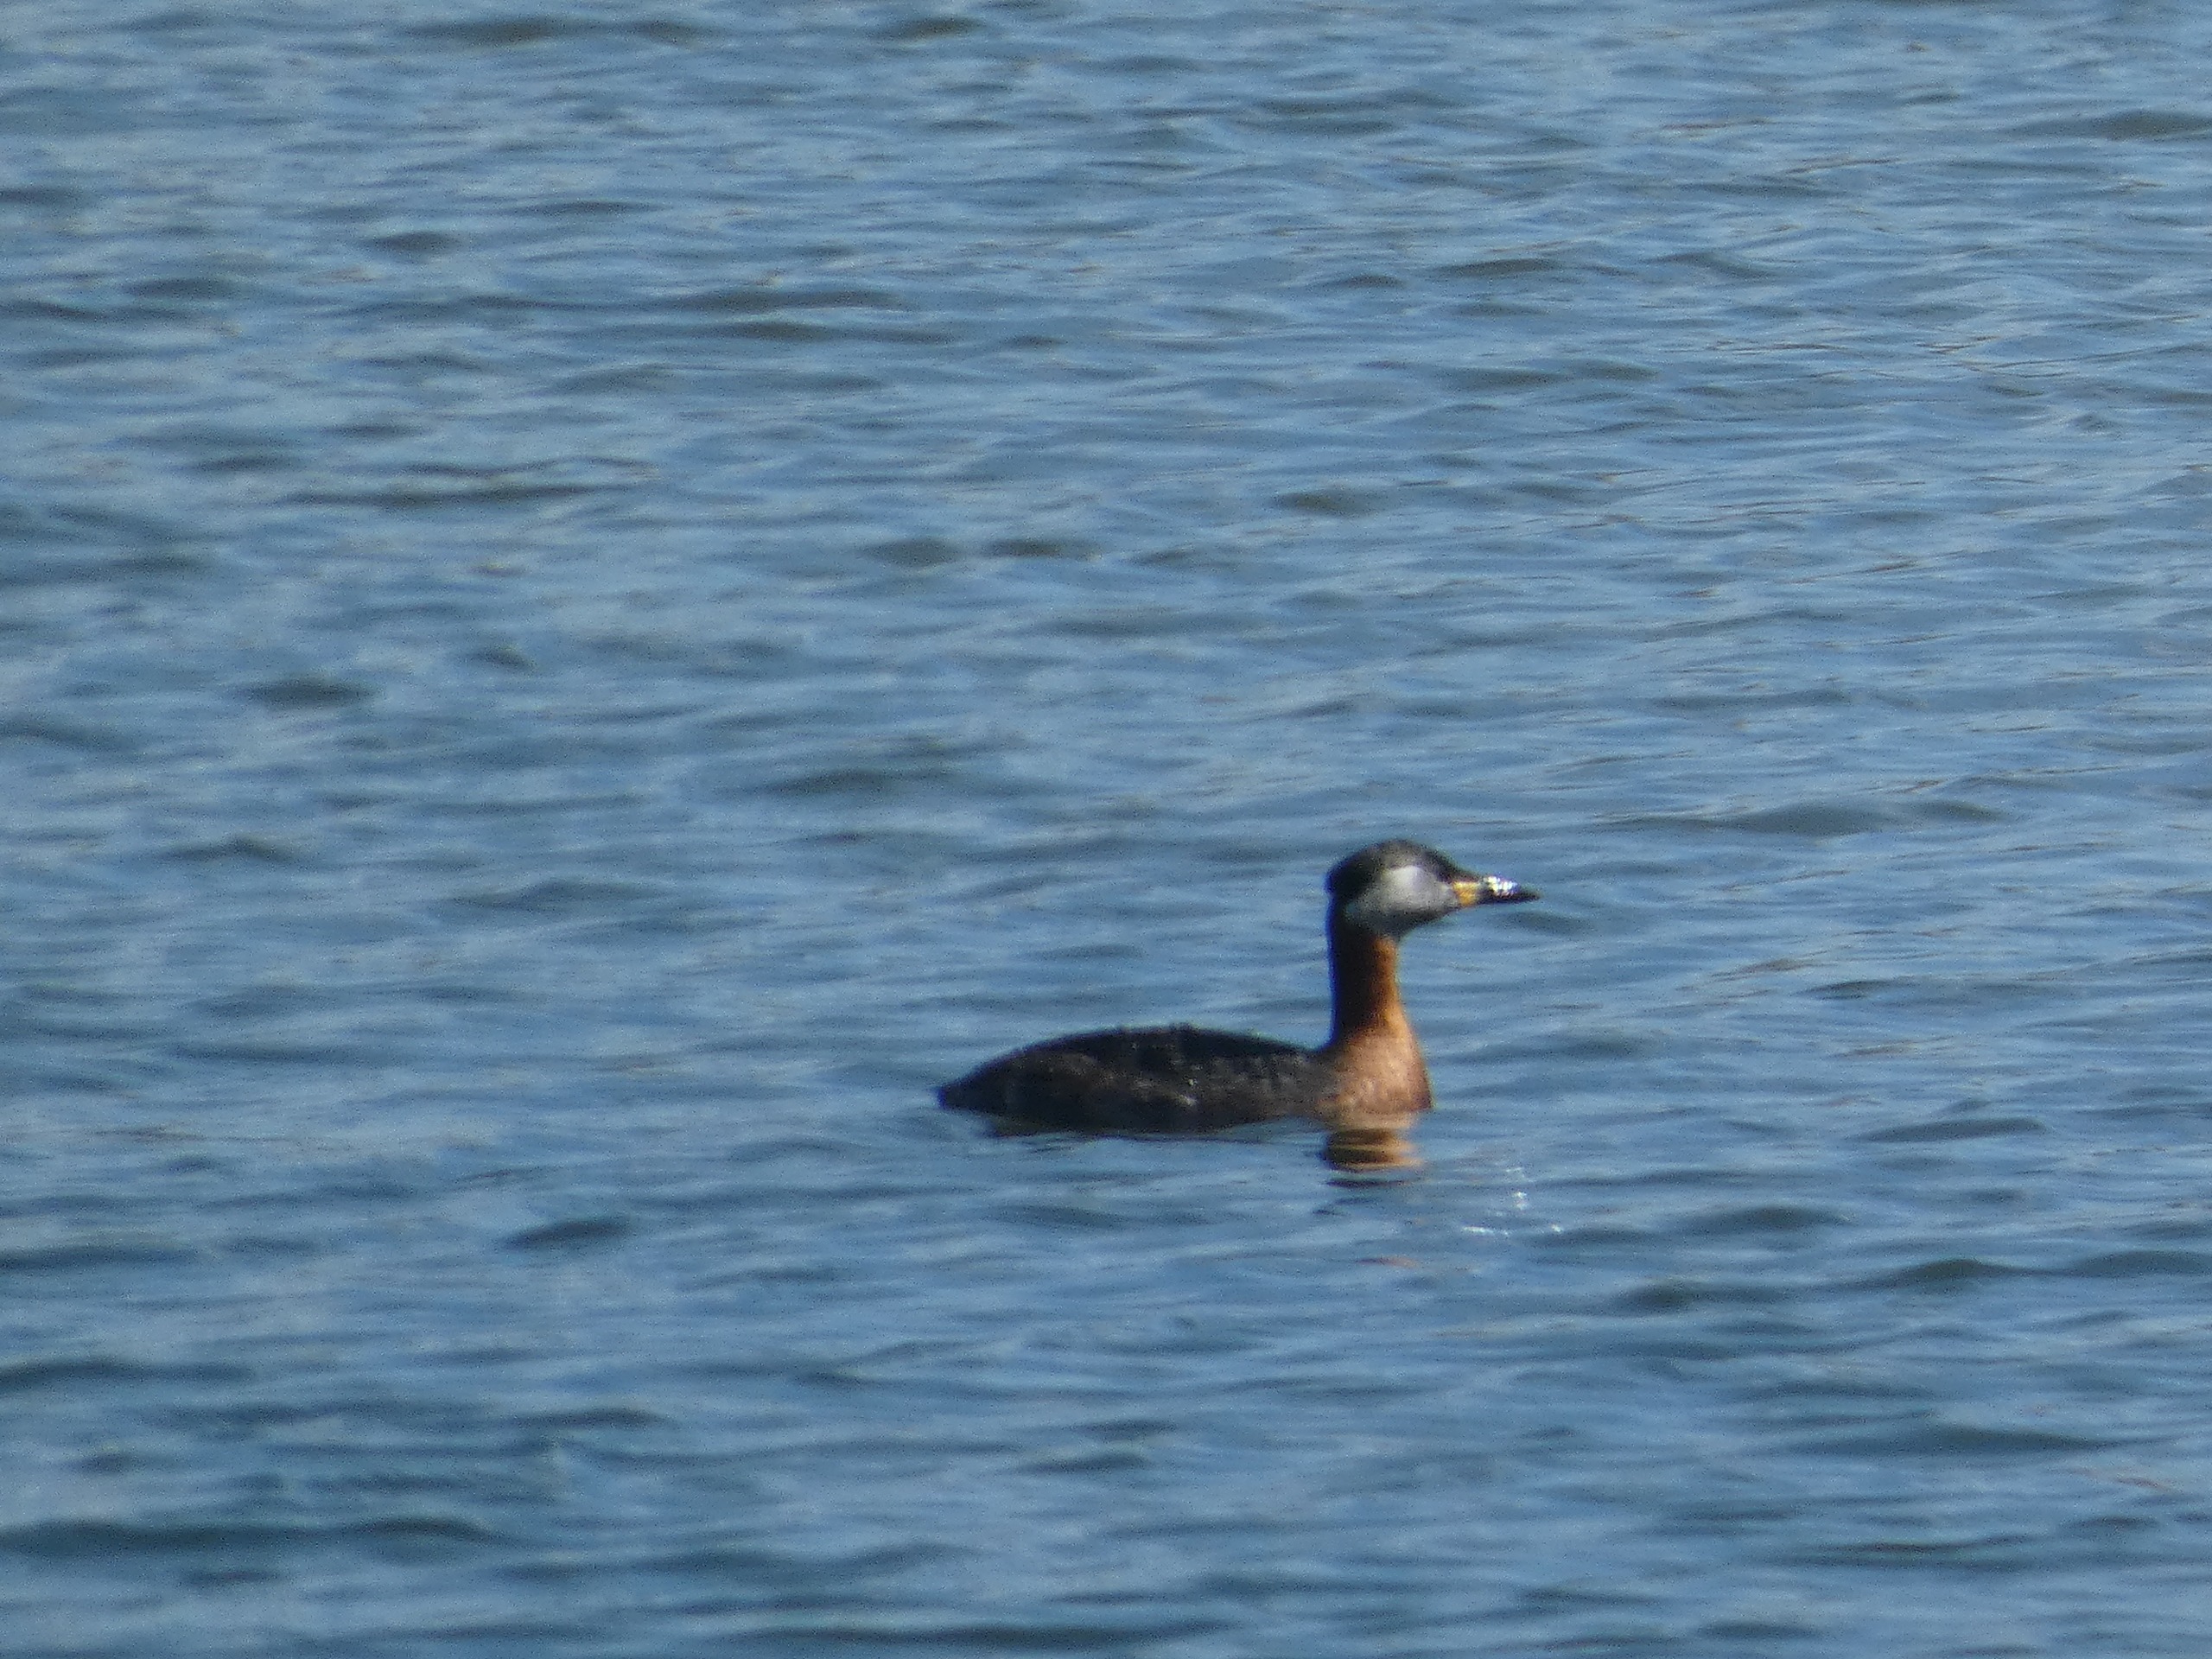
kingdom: Animalia
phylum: Chordata
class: Aves
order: Podicipediformes
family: Podicipedidae
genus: Podiceps
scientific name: Podiceps grisegena
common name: Gråstrubet lappedykker
